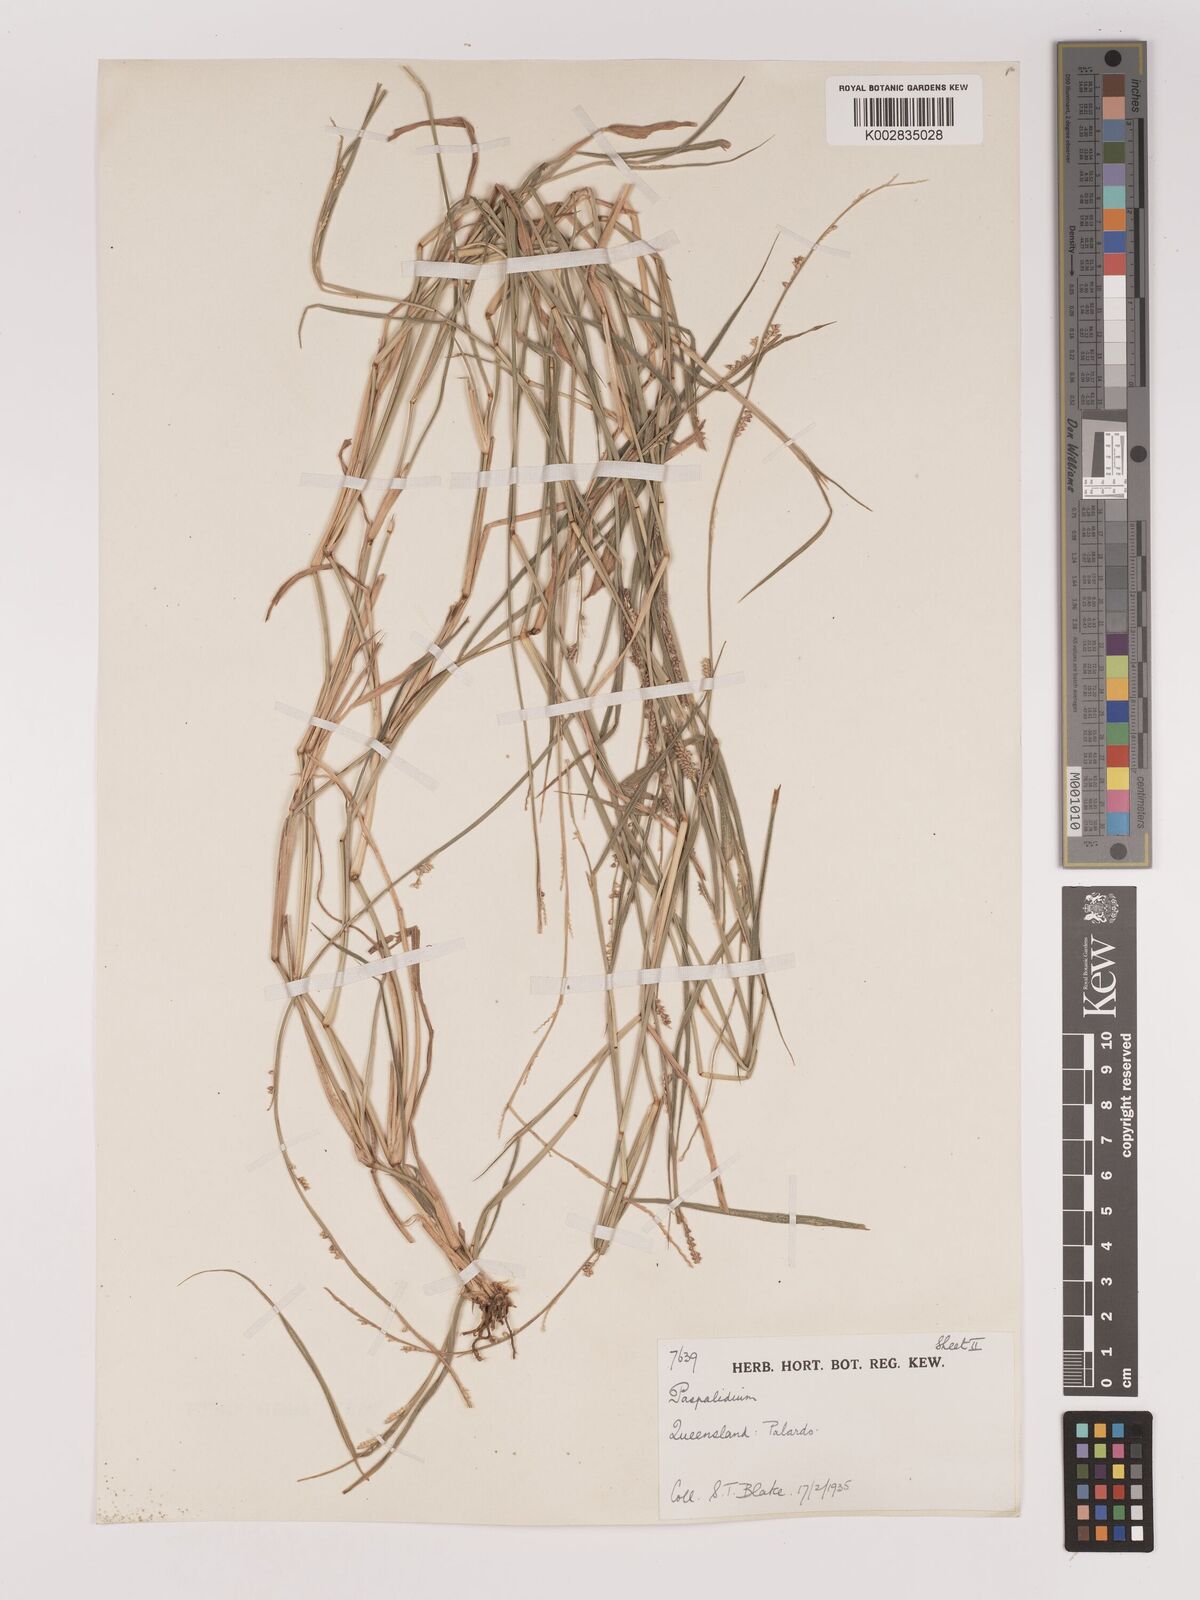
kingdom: Plantae
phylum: Tracheophyta
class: Liliopsida
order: Poales
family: Poaceae
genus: Setaria
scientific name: Setaria
